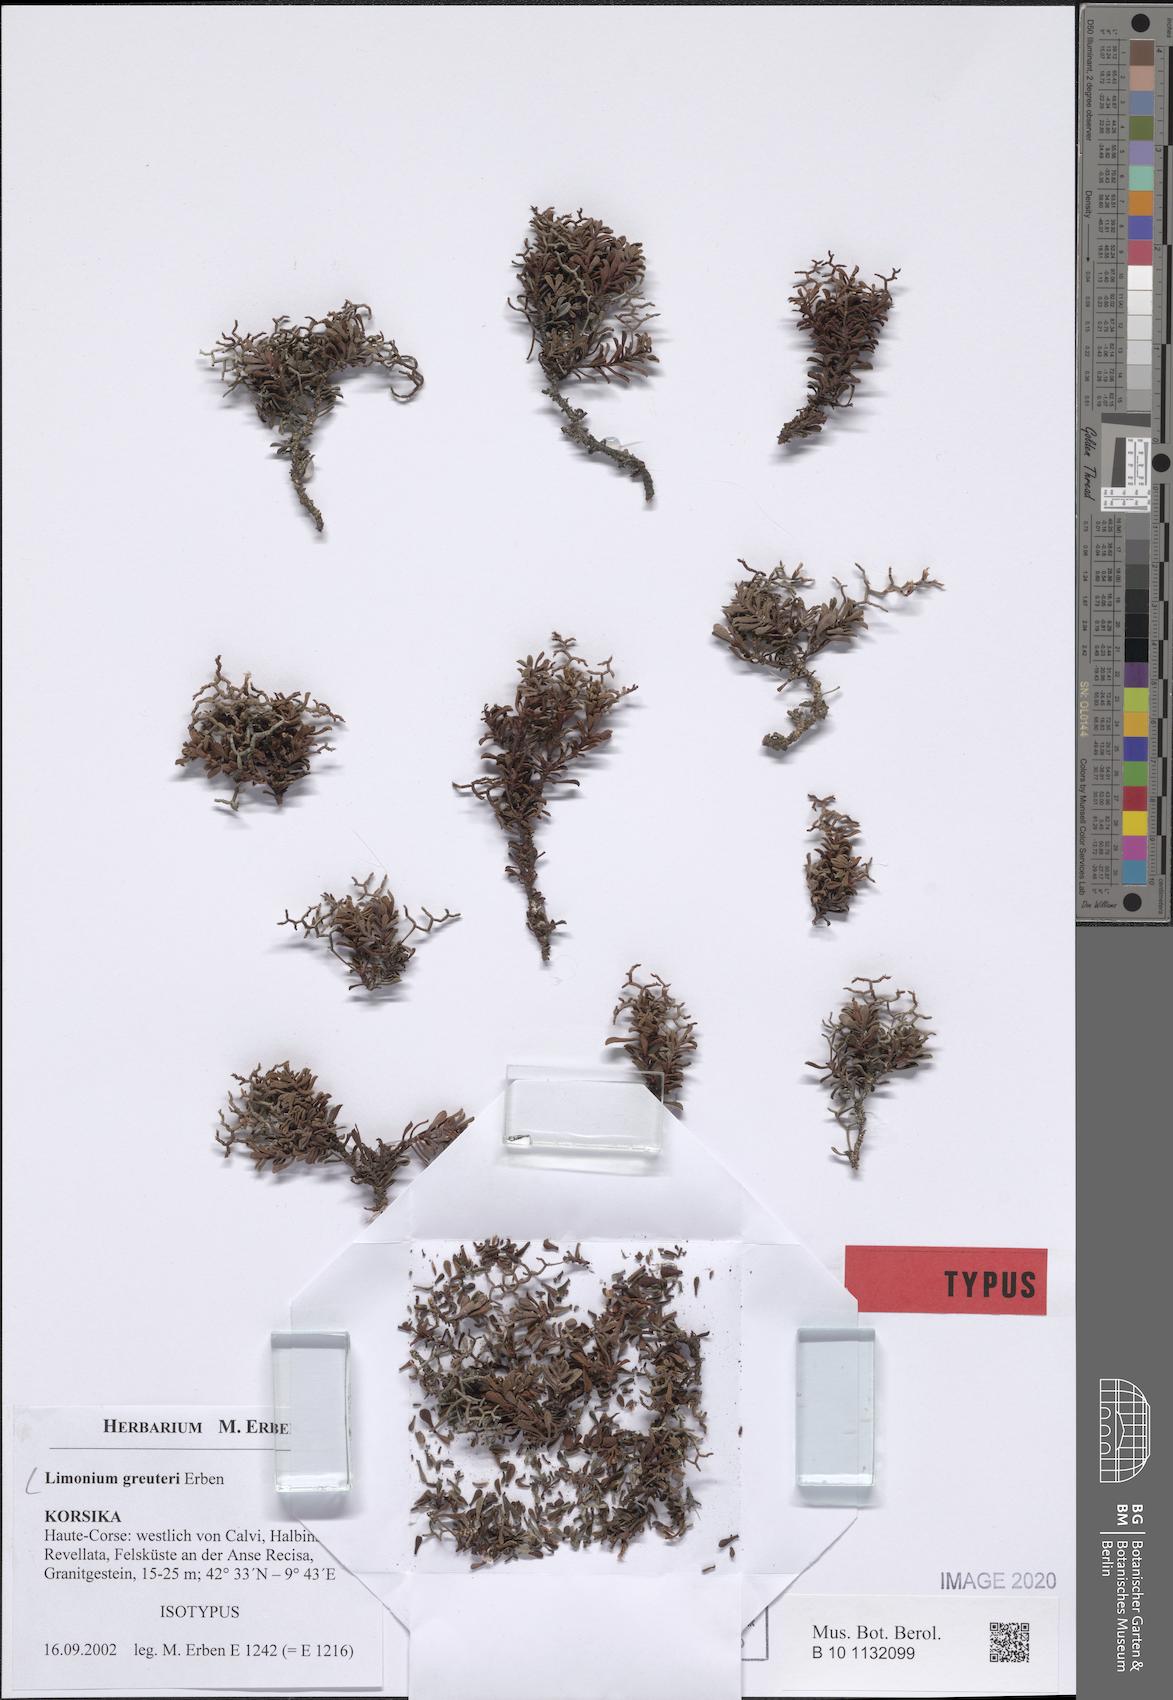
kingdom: Plantae
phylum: Tracheophyta
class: Magnoliopsida
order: Caryophyllales
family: Plumbaginaceae
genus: Limonium
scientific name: Limonium greuteri
